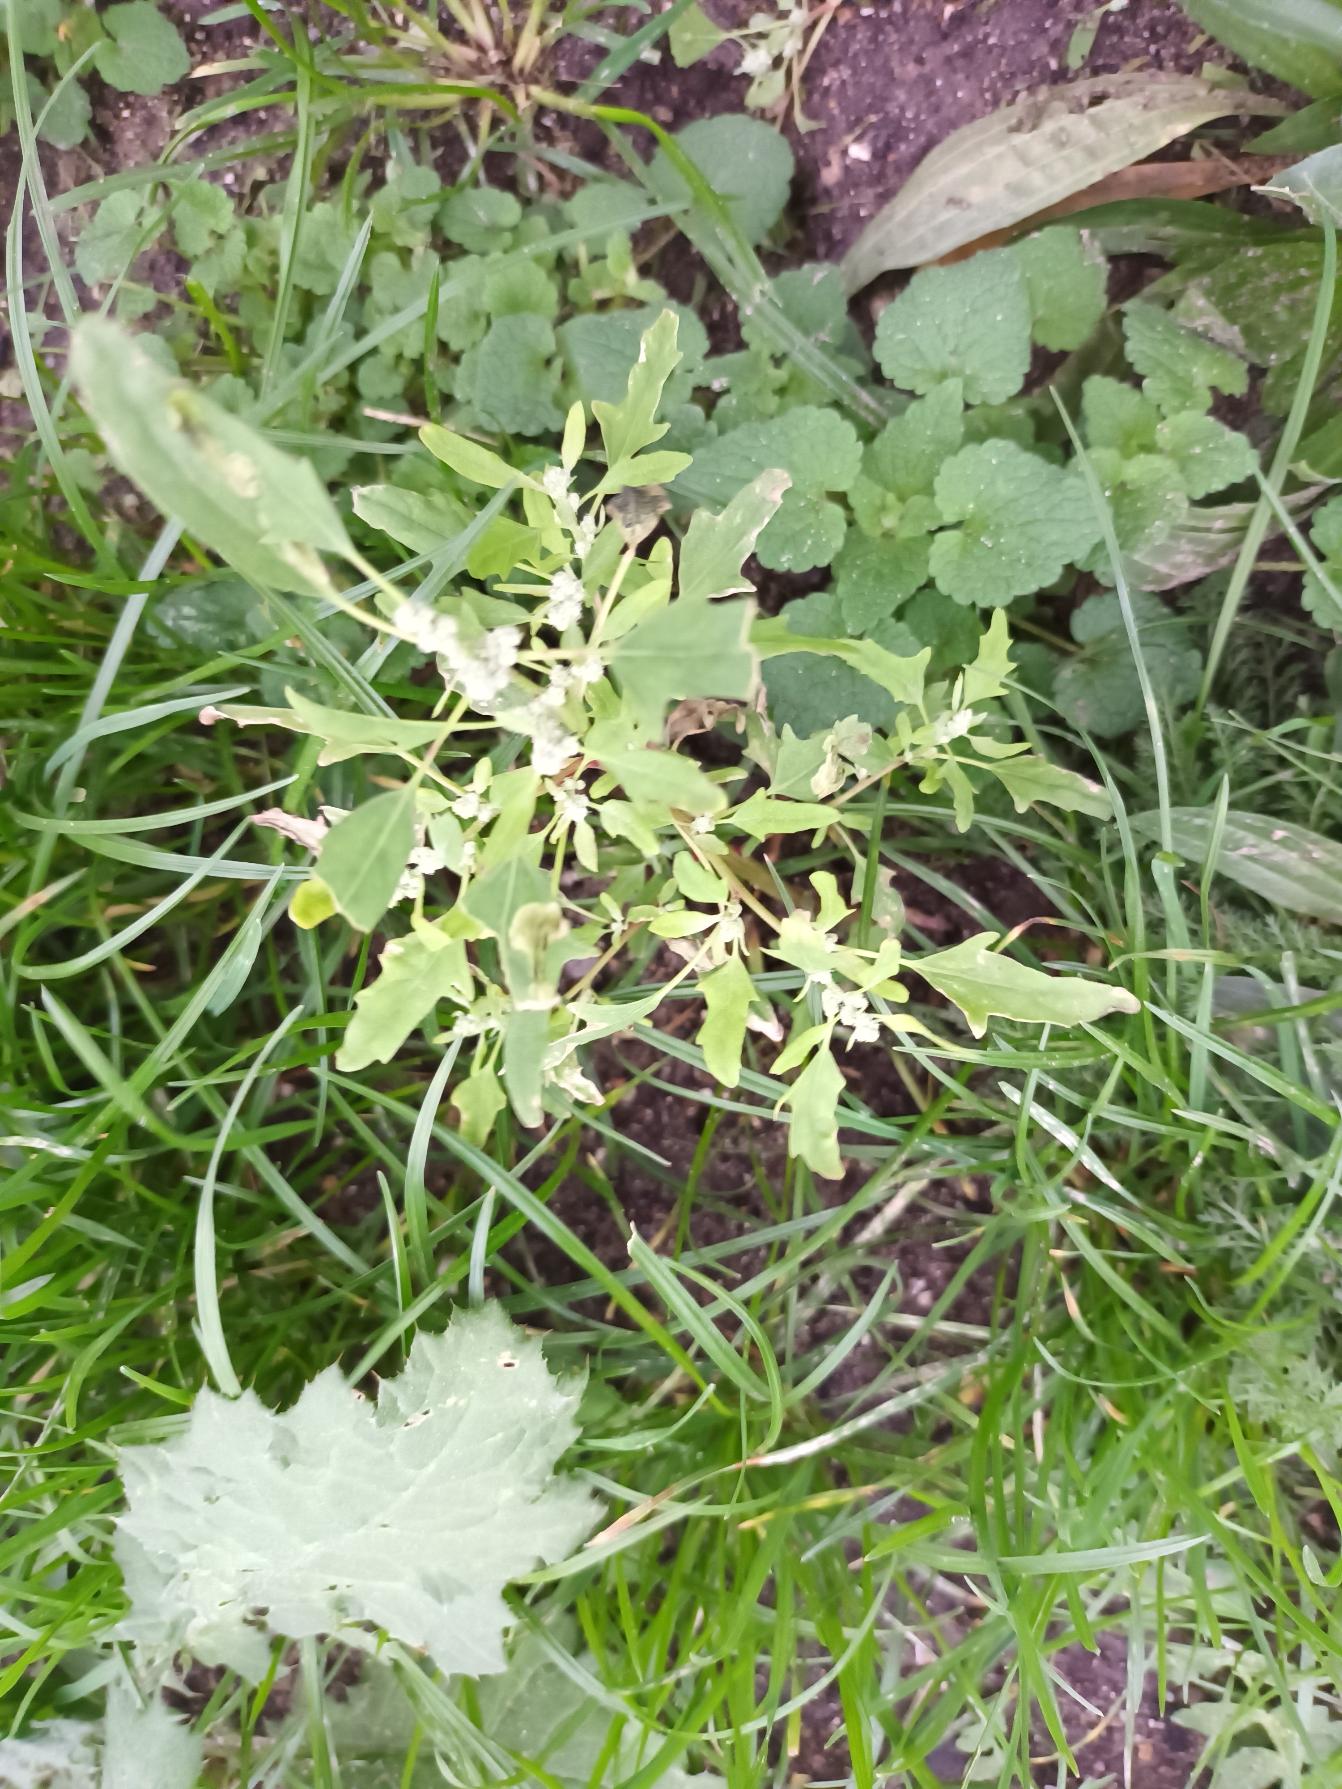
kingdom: Plantae
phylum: Tracheophyta
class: Magnoliopsida
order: Caryophyllales
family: Amaranthaceae
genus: Chenopodium
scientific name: Chenopodium ficifolium
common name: Figenbladet gåsefod
